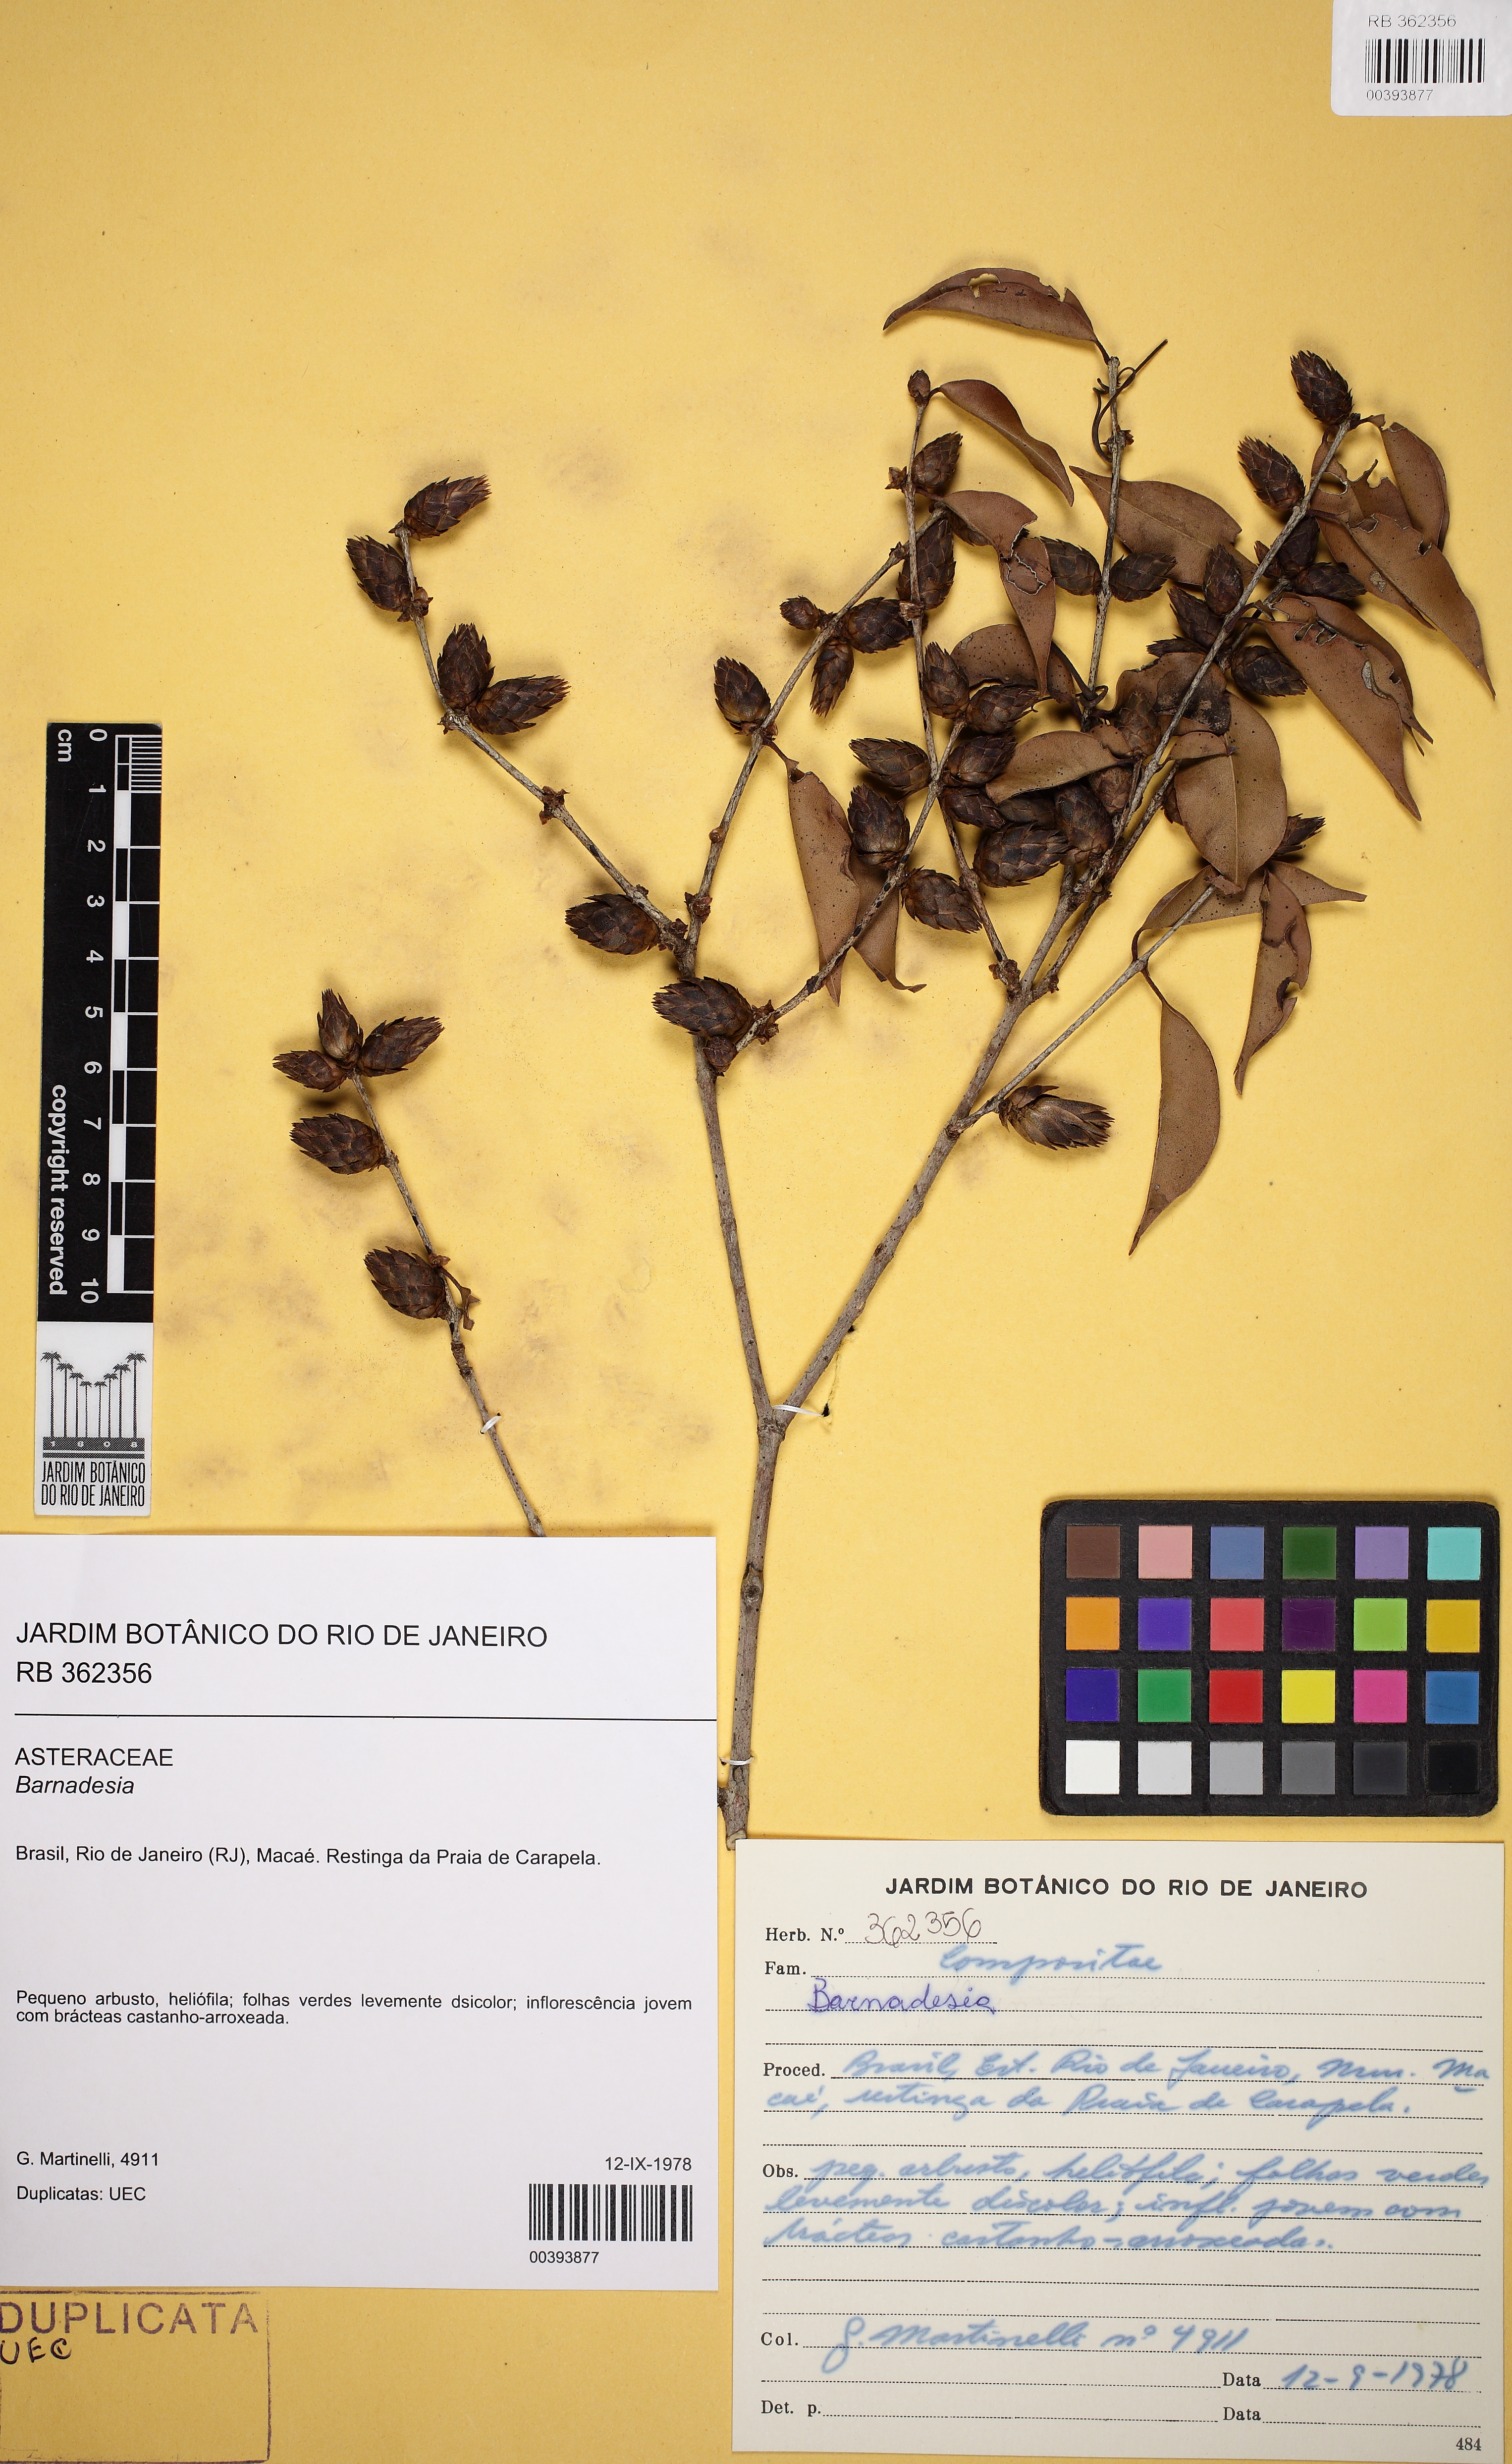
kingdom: Plantae
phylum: Tracheophyta
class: Magnoliopsida
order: Asterales
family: Asteraceae
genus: Barnadesia
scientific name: Barnadesia
